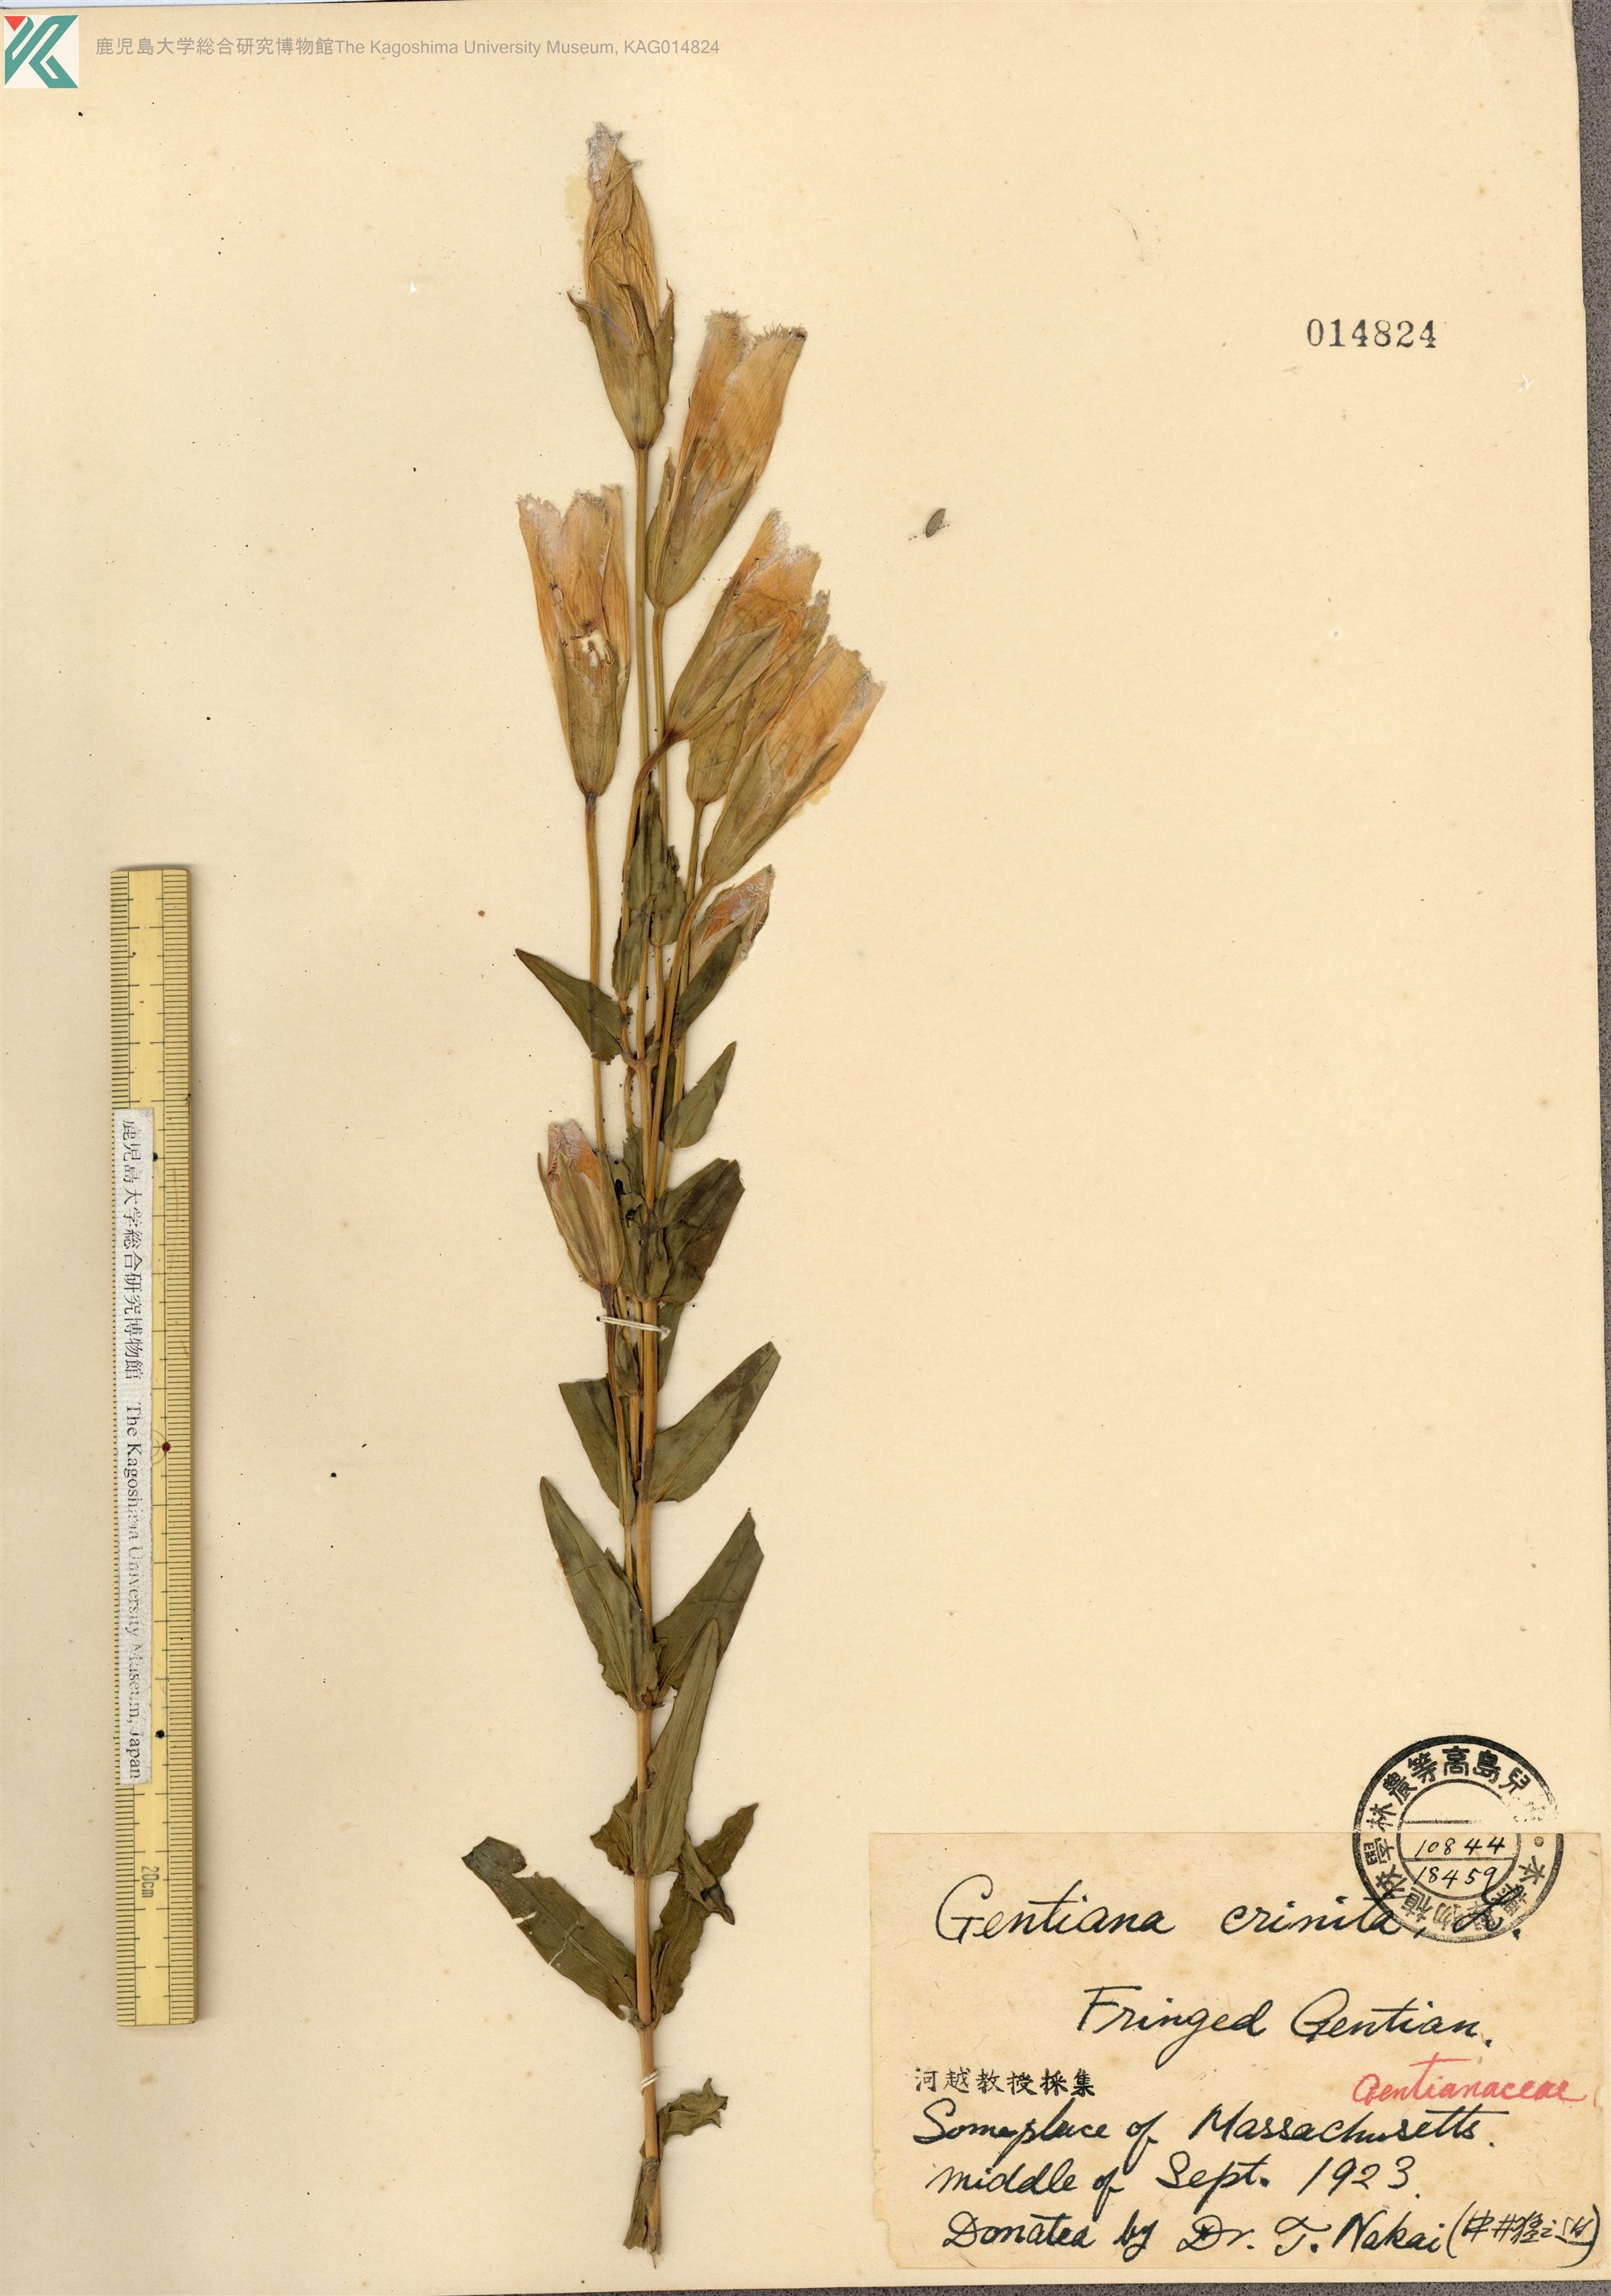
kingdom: Plantae
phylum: Tracheophyta
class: Magnoliopsida
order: Gentianales
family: Gentianaceae
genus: Gentianopsis
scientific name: Gentianopsis crinita
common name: Fringed-gentian
